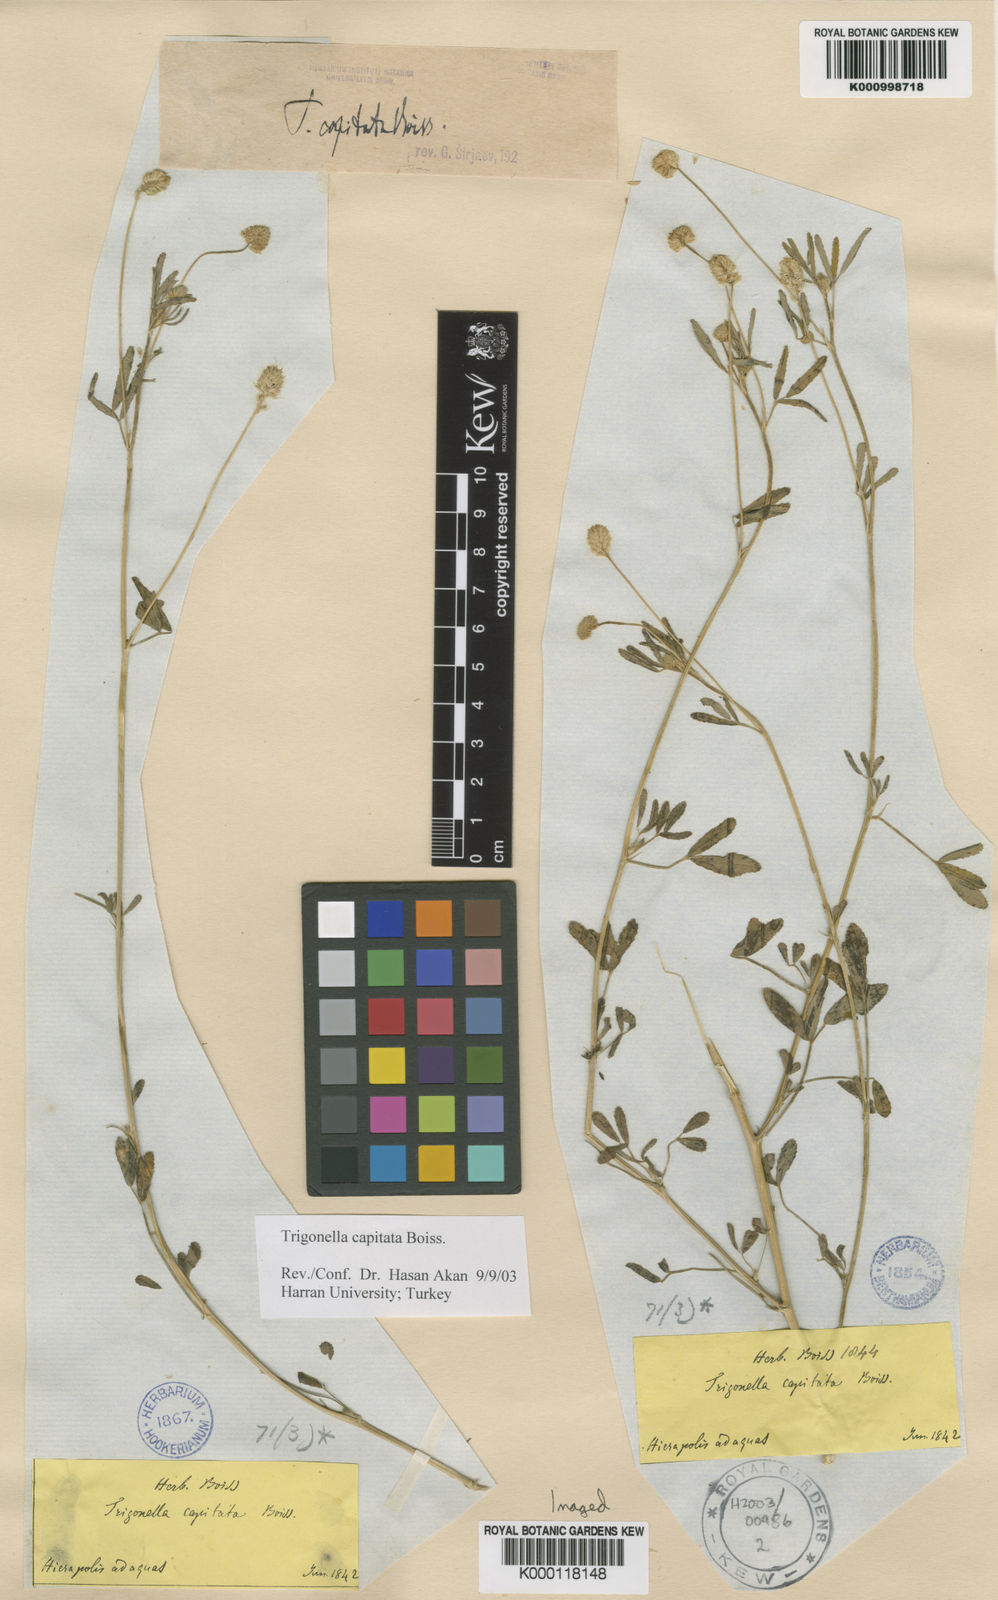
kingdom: Plantae
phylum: Tracheophyta
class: Magnoliopsida
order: Fabales
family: Fabaceae
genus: Trigonella
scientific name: Trigonella capitata
